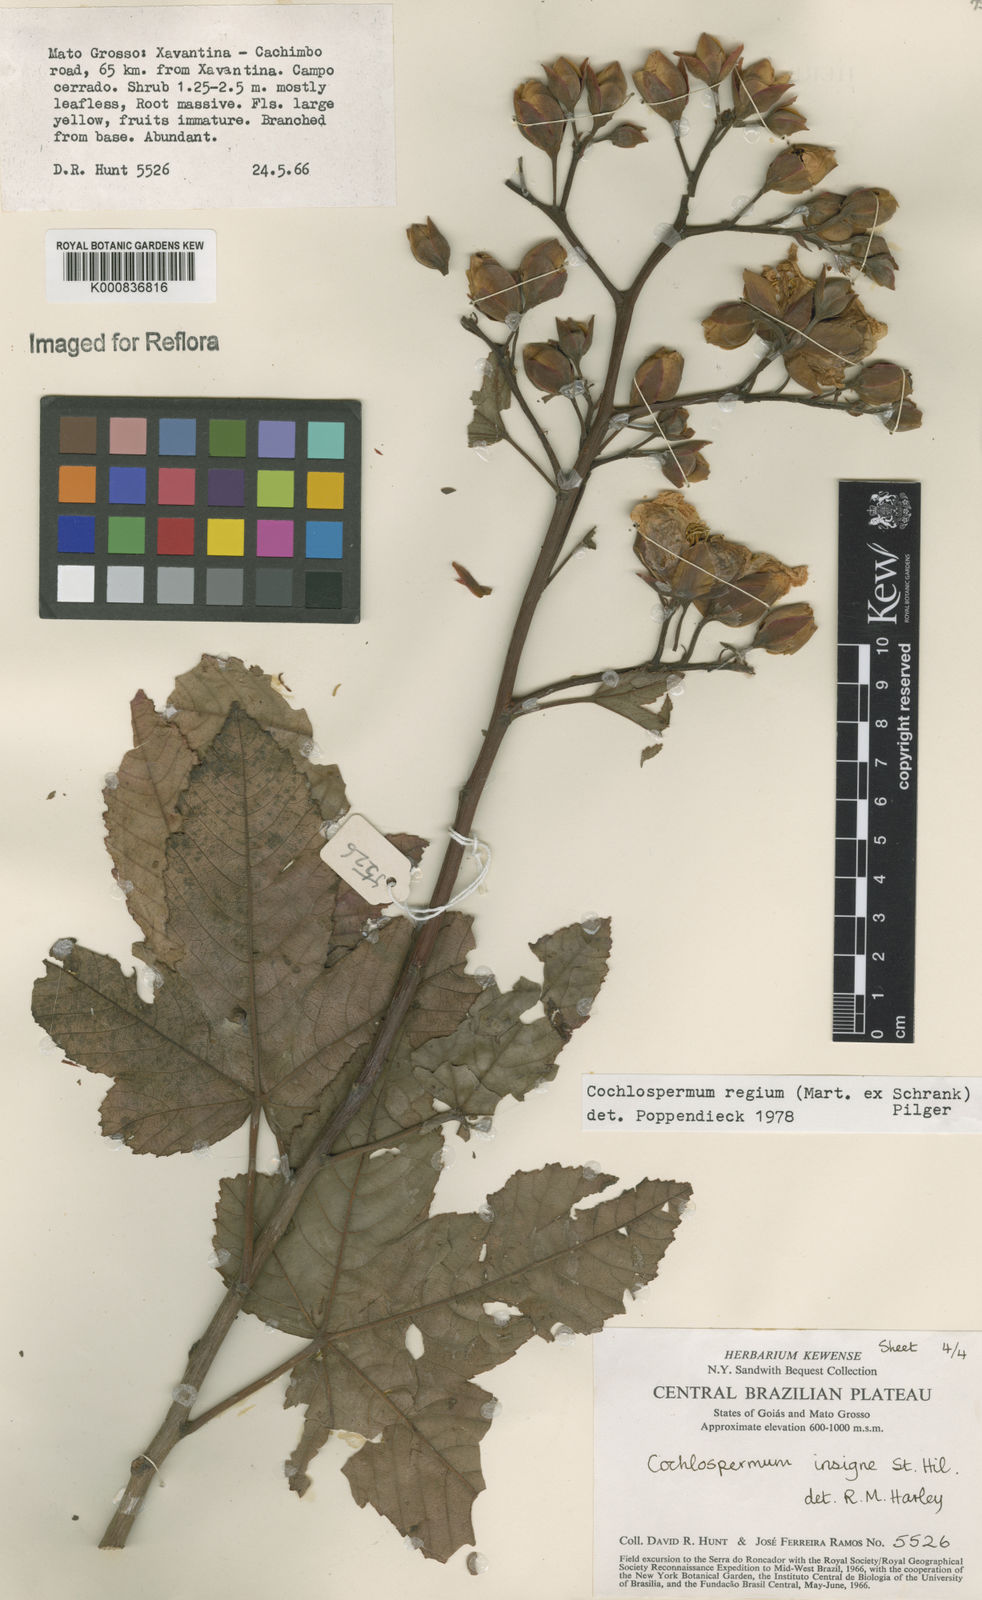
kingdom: Plantae
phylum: Tracheophyta
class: Magnoliopsida
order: Malvales
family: Cochlospermaceae
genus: Cochlospermum
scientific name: Cochlospermum regium
